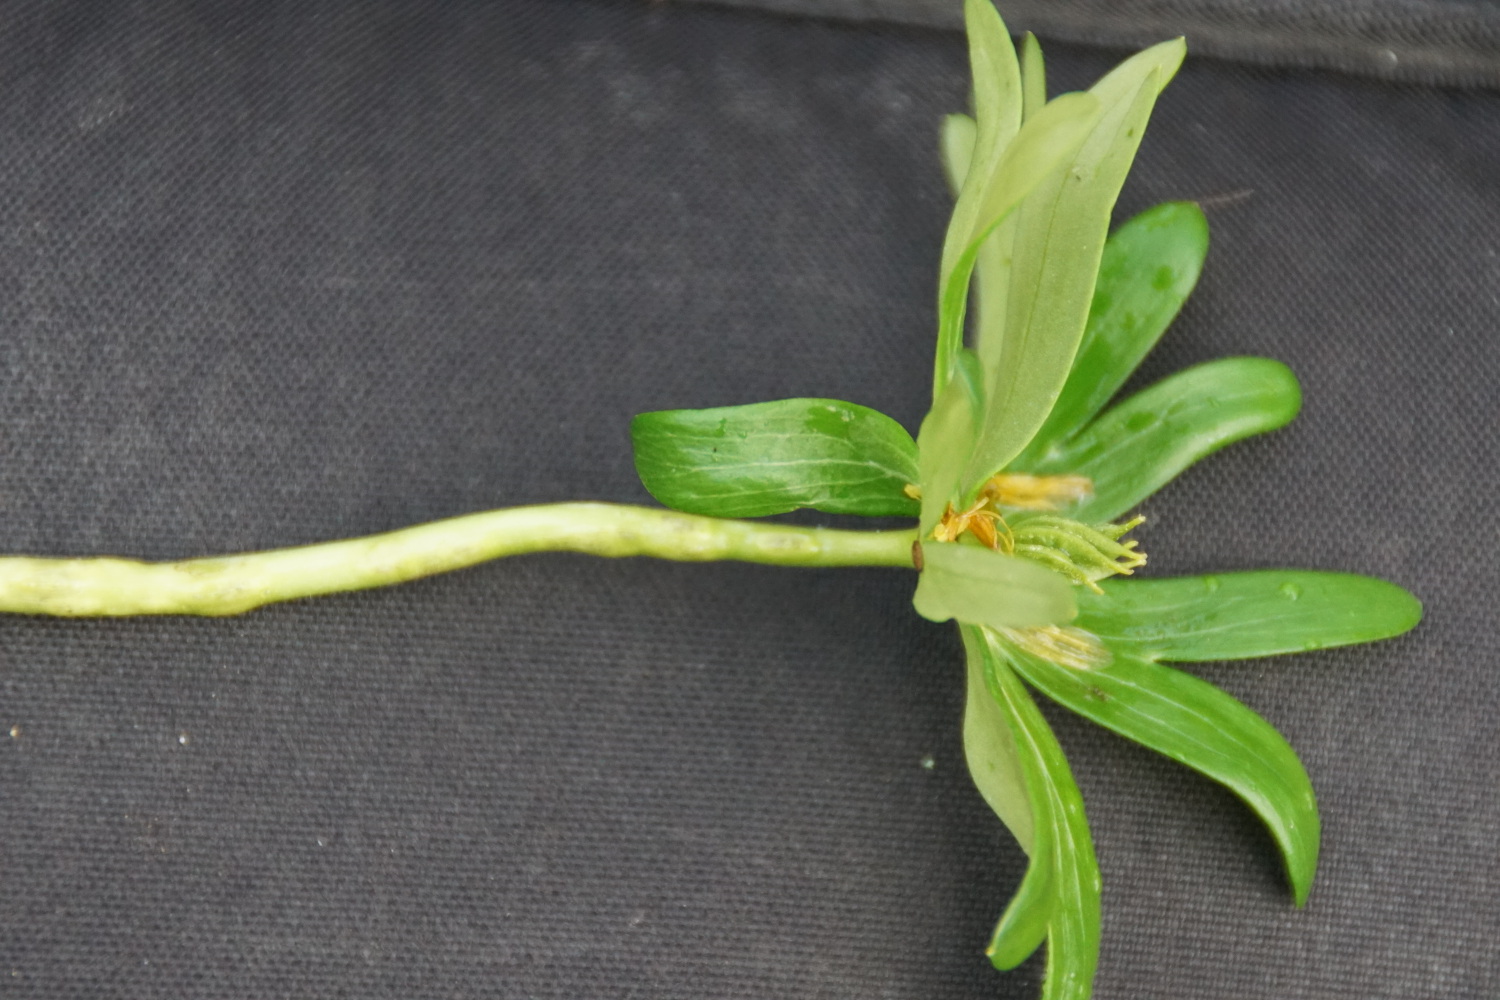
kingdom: Fungi
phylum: Basidiomycota
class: Ustilaginomycetes
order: Urocystidales
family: Urocystidaceae
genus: Urocystis
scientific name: Urocystis eranthidis
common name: erantis-brand
